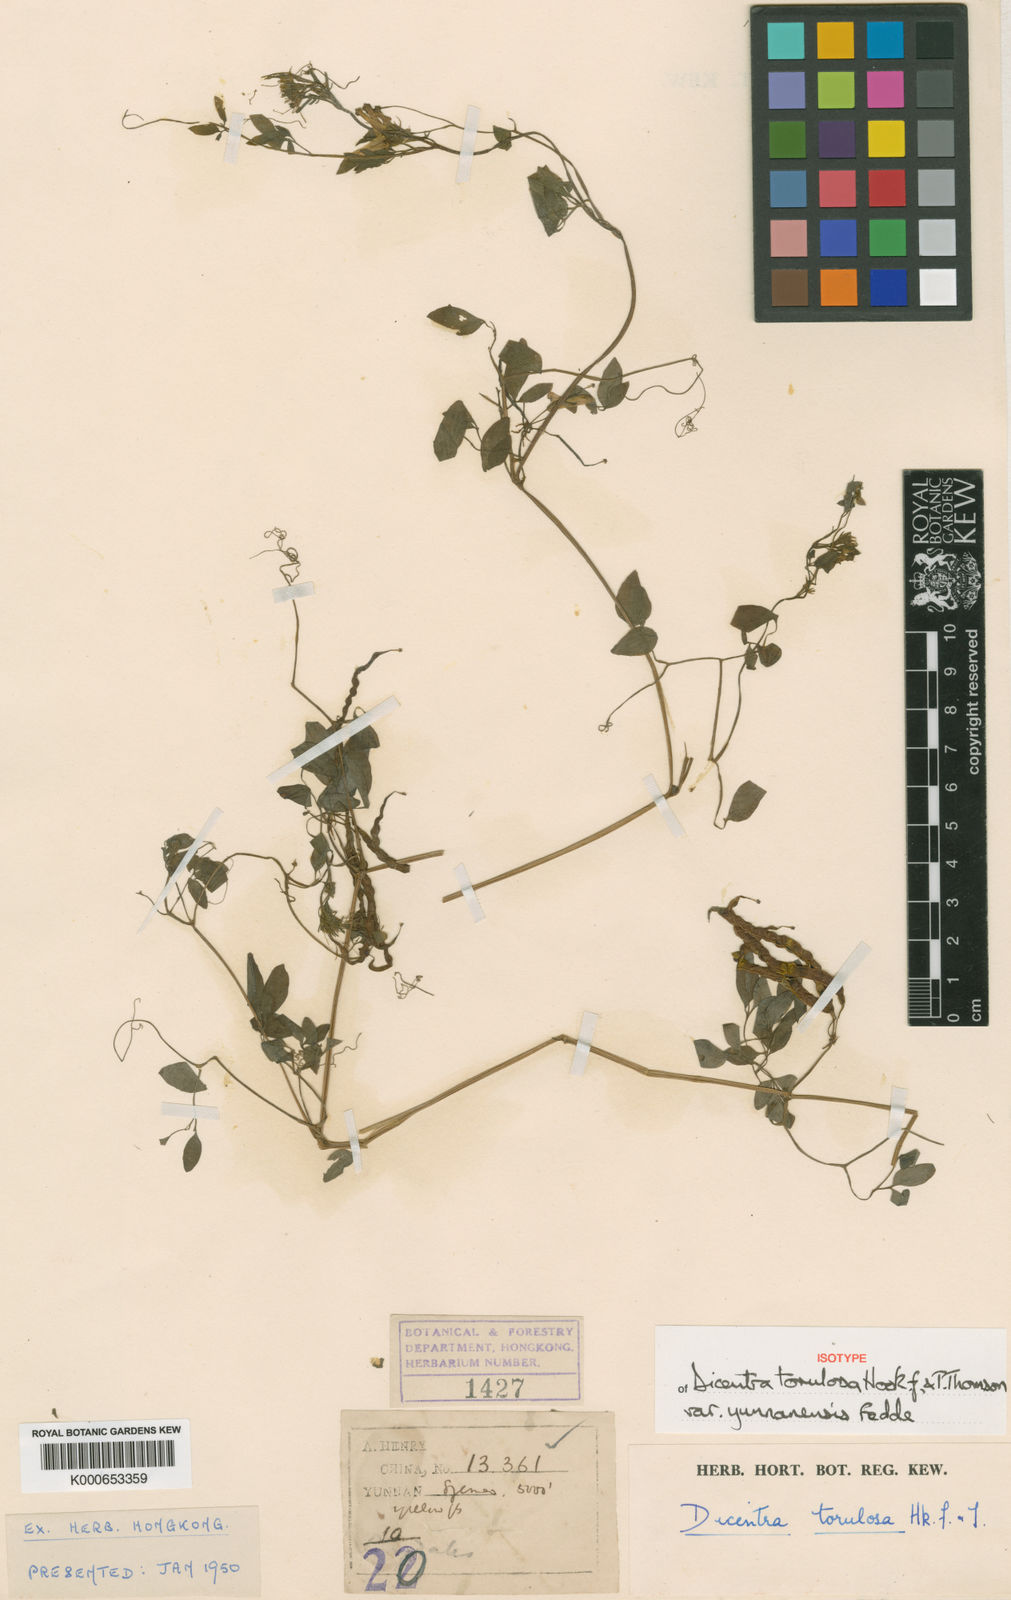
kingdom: Plantae
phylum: Tracheophyta
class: Magnoliopsida
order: Ranunculales
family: Papaveraceae
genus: Dactylicapnos
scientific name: Dactylicapnos torulosa
